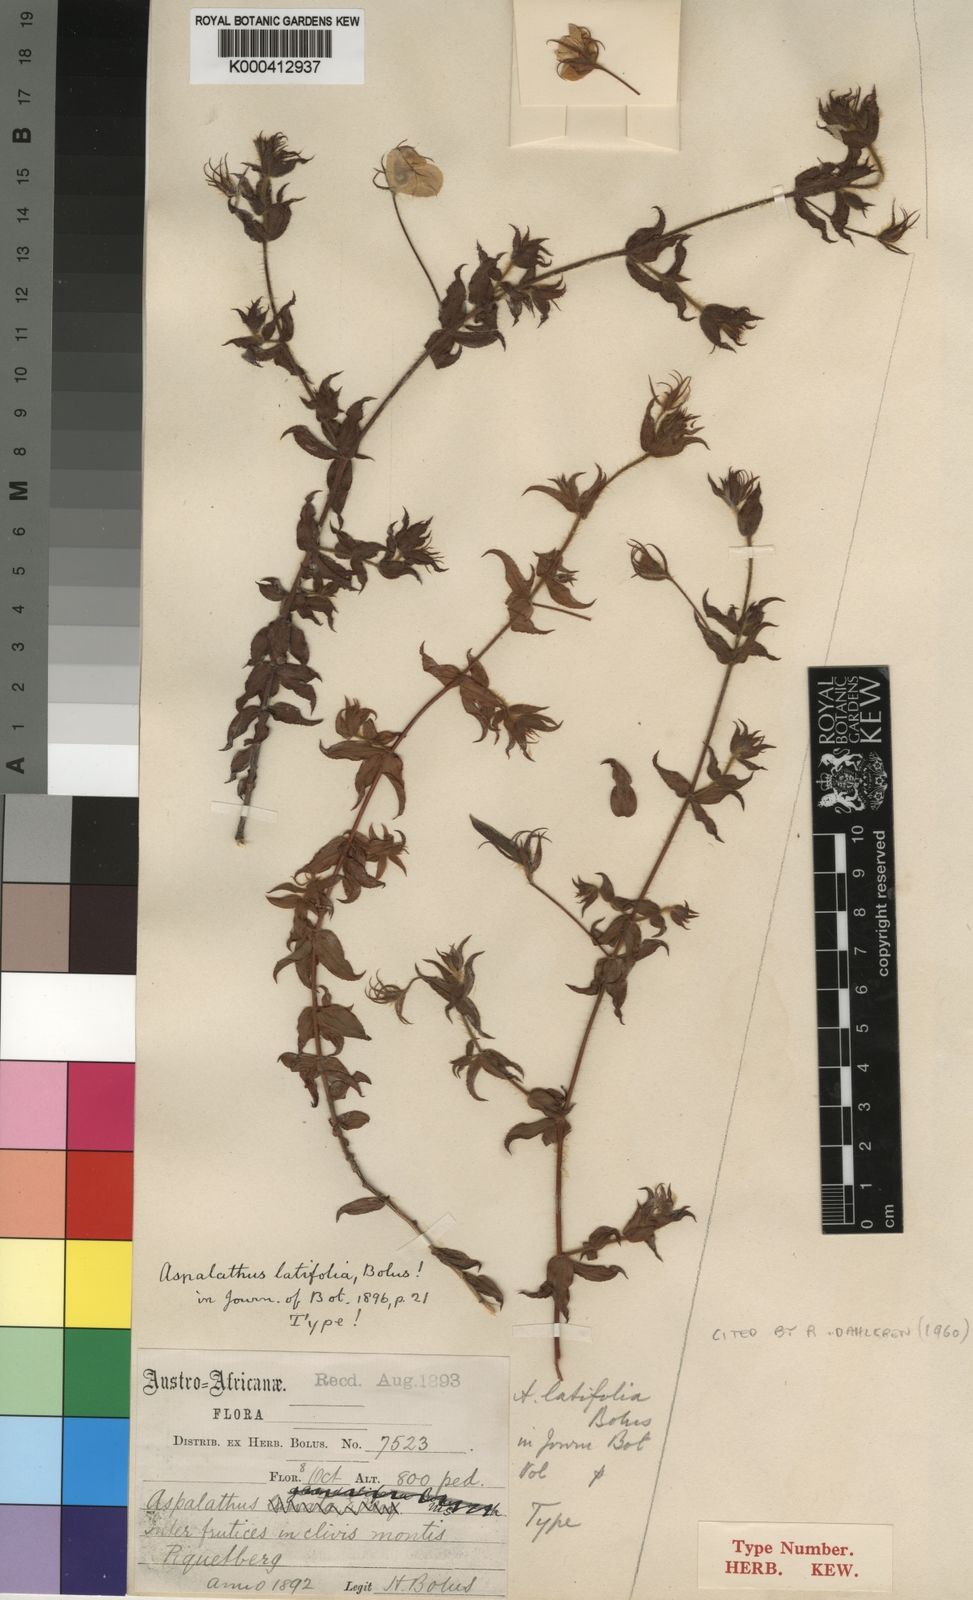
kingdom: Plantae
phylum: Tracheophyta
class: Magnoliopsida
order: Fabales
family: Fabaceae
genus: Aspalathus
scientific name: Aspalathus latifolia
